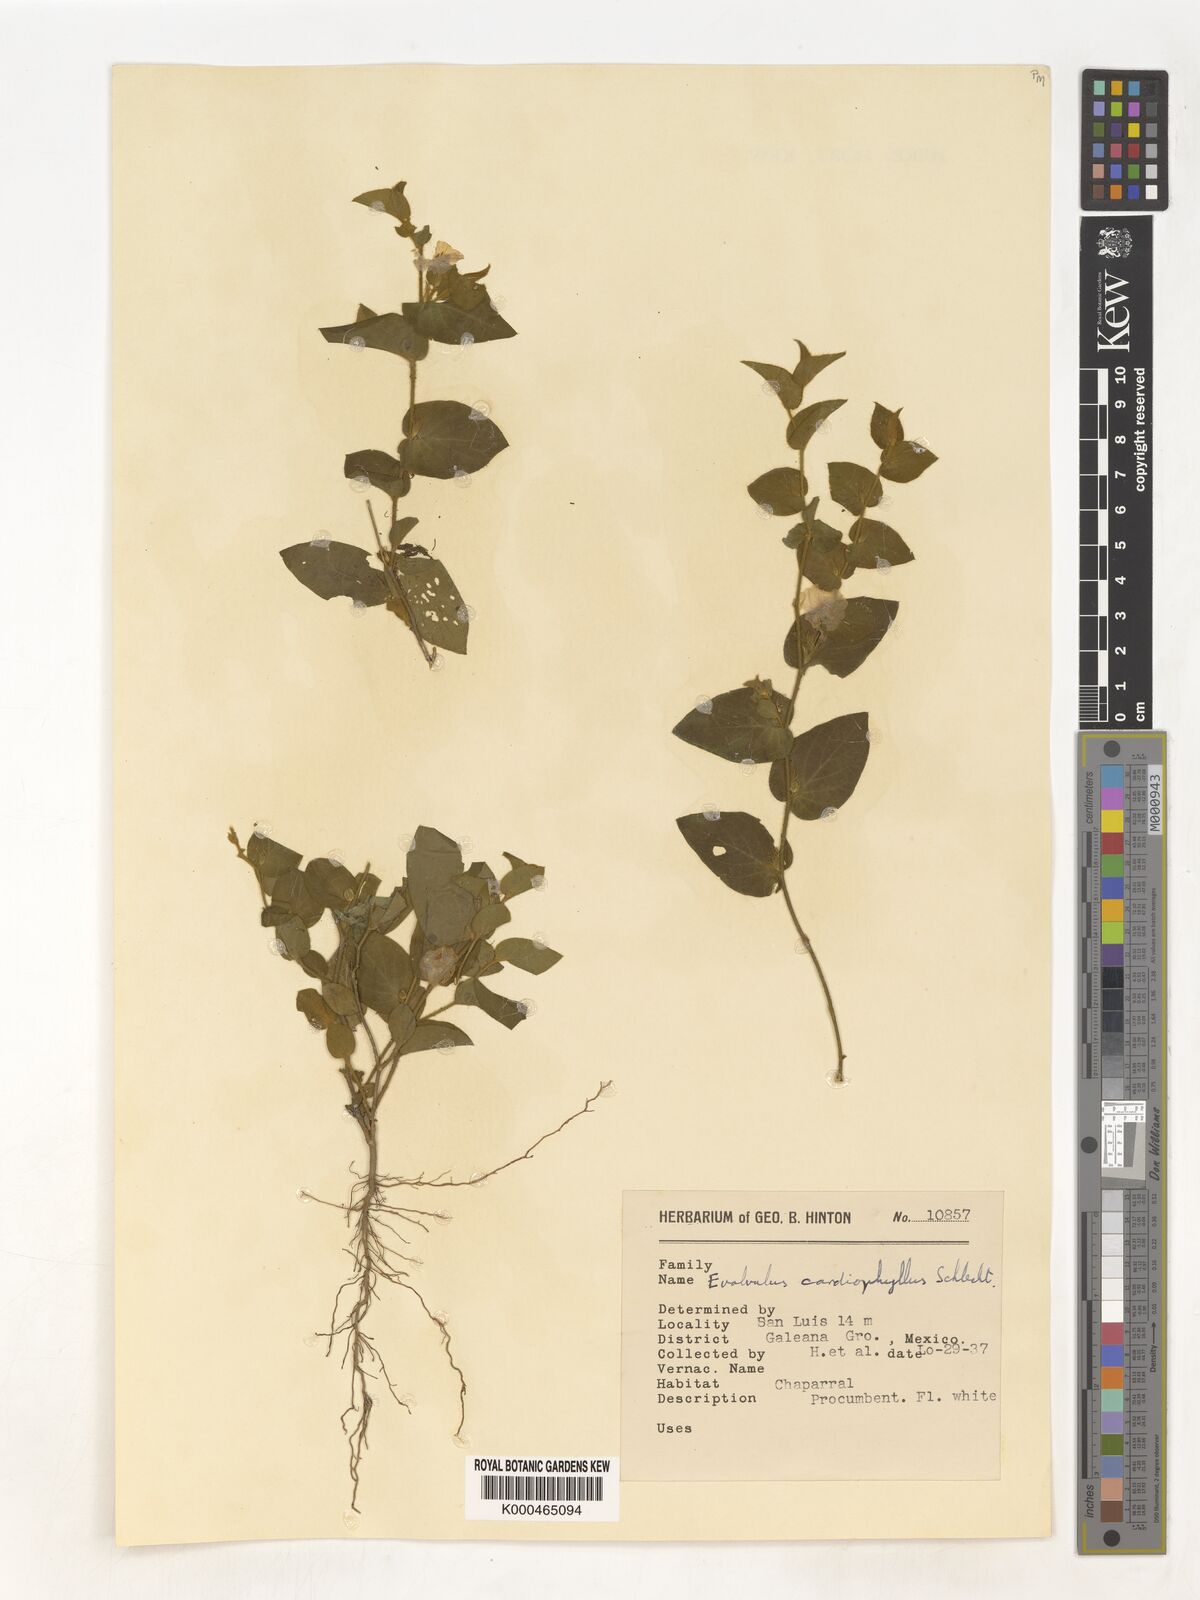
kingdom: Plantae
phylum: Tracheophyta
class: Magnoliopsida
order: Solanales
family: Convolvulaceae
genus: Evolvulus
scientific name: Evolvulus cardiophyllus
